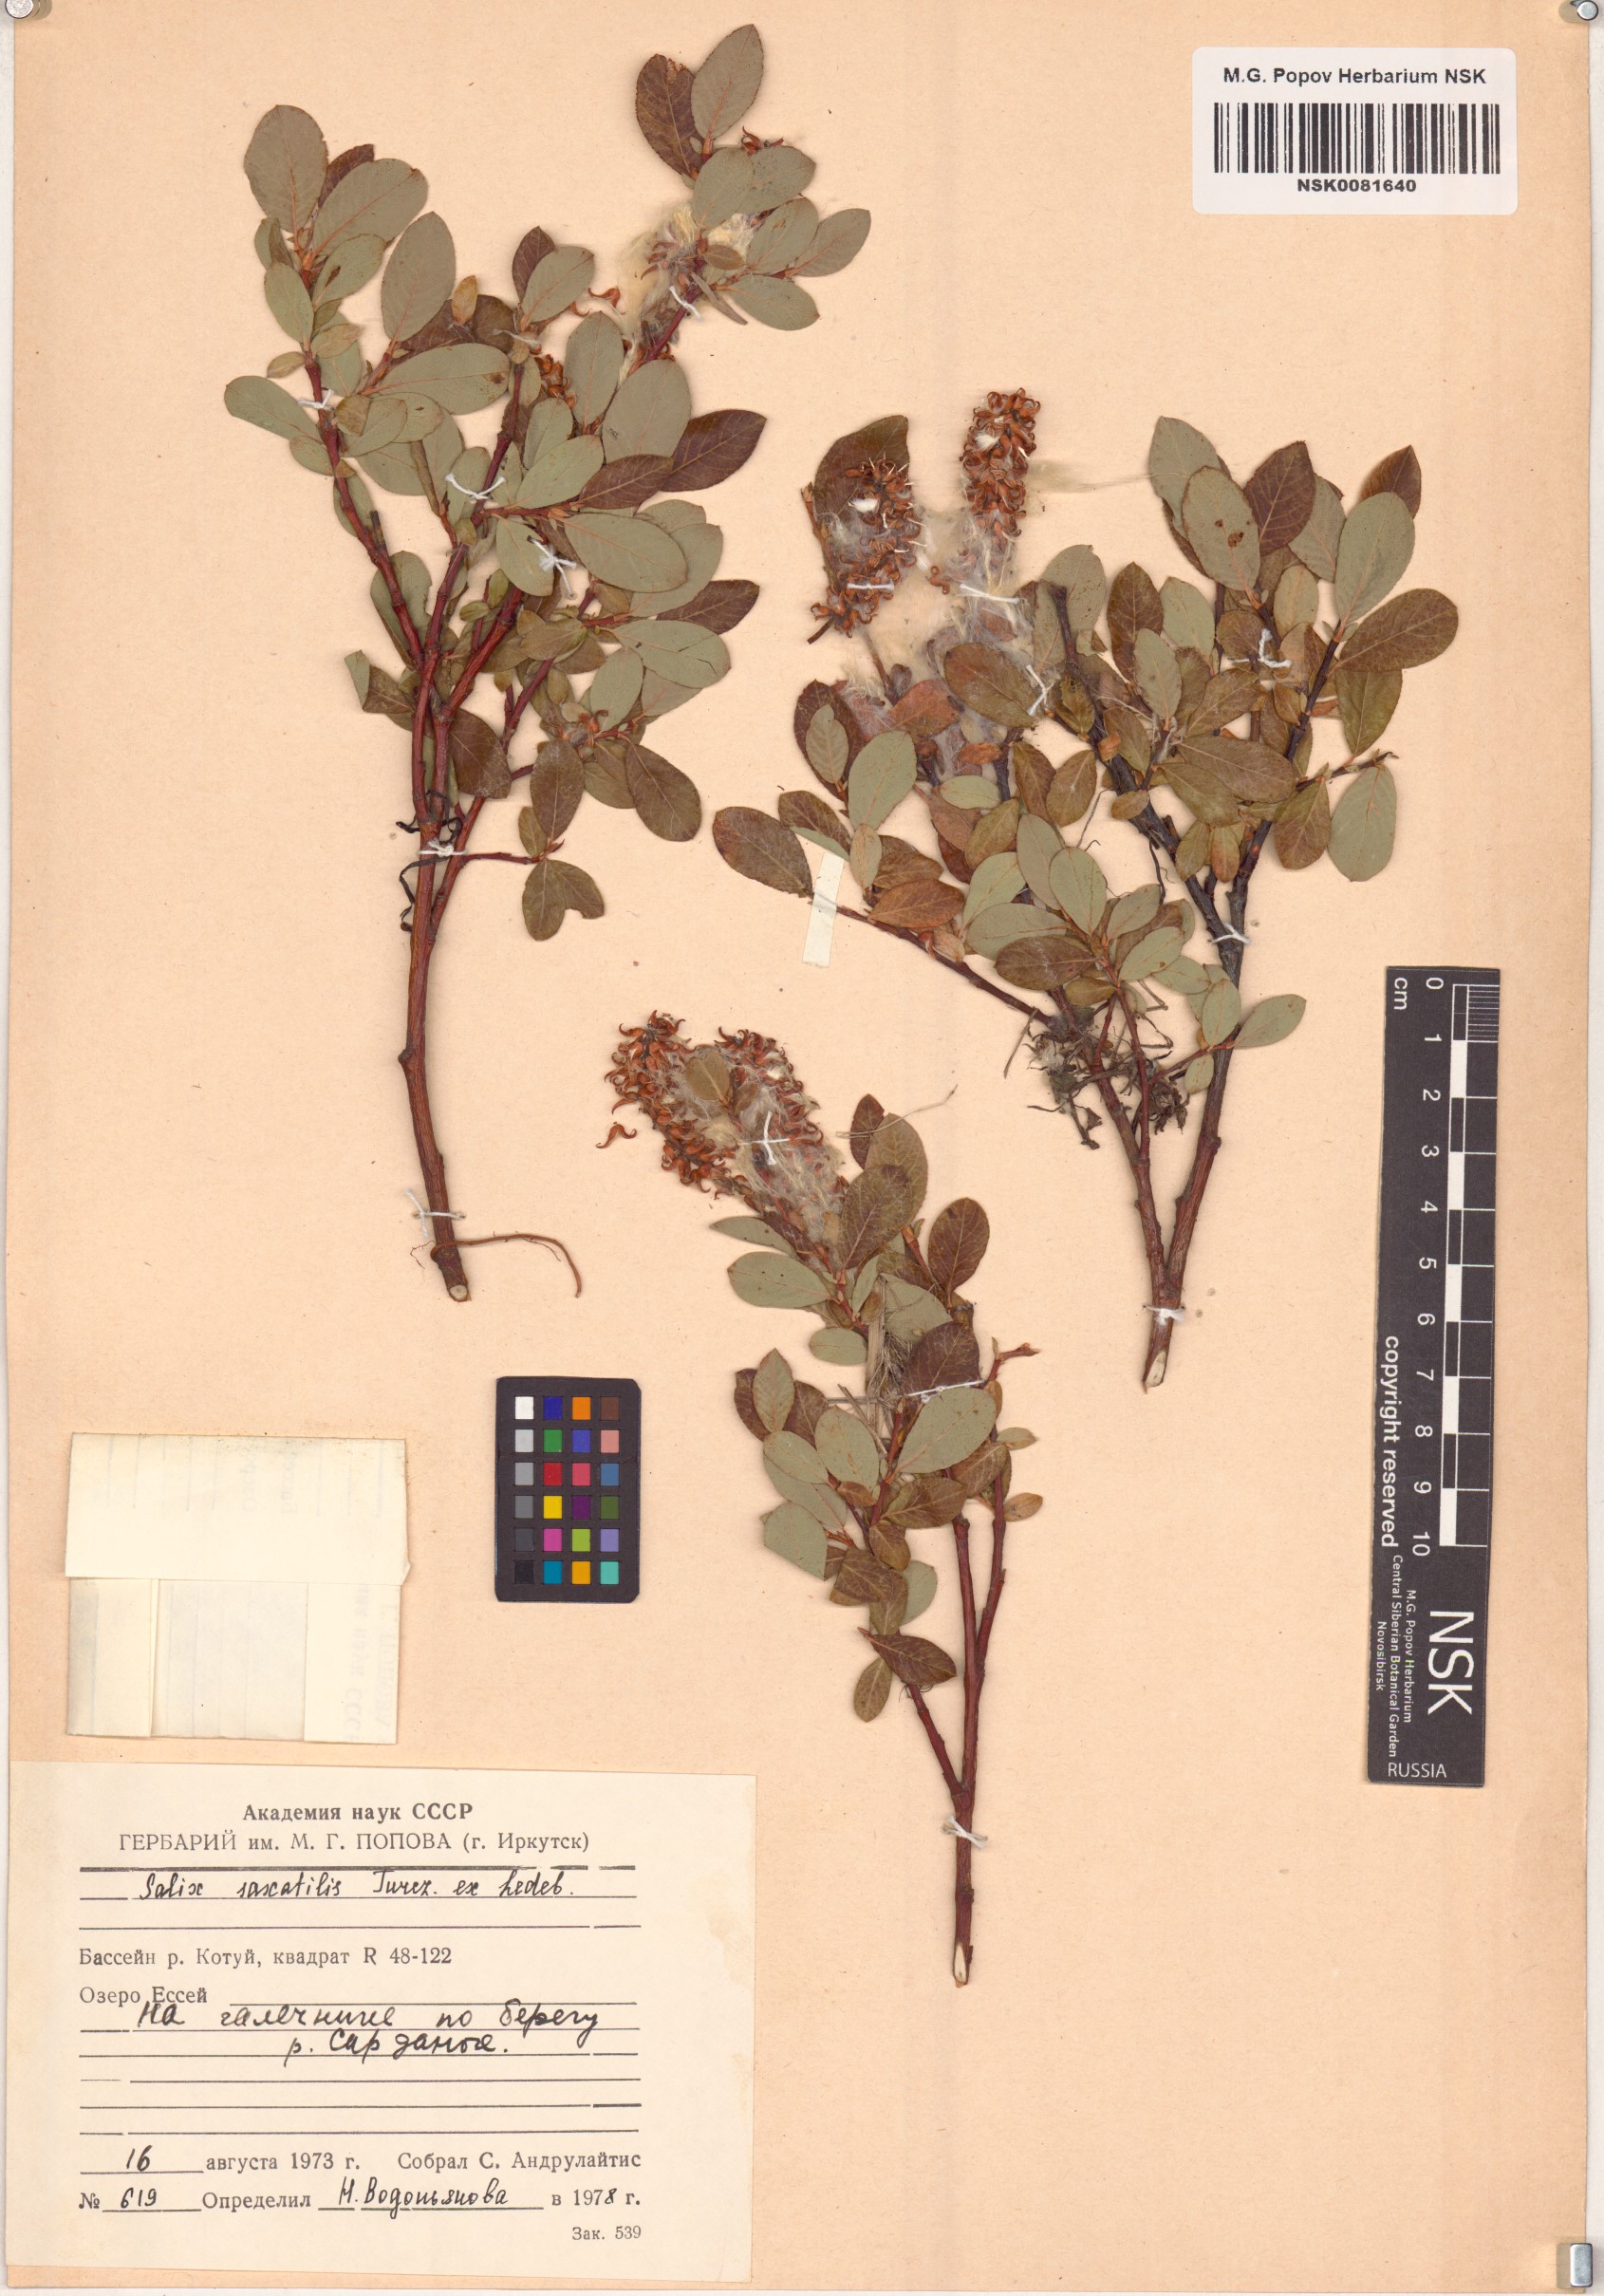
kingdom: Plantae
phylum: Tracheophyta
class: Magnoliopsida
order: Malpighiales
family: Salicaceae
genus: Salix
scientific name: Salix saxatilis
